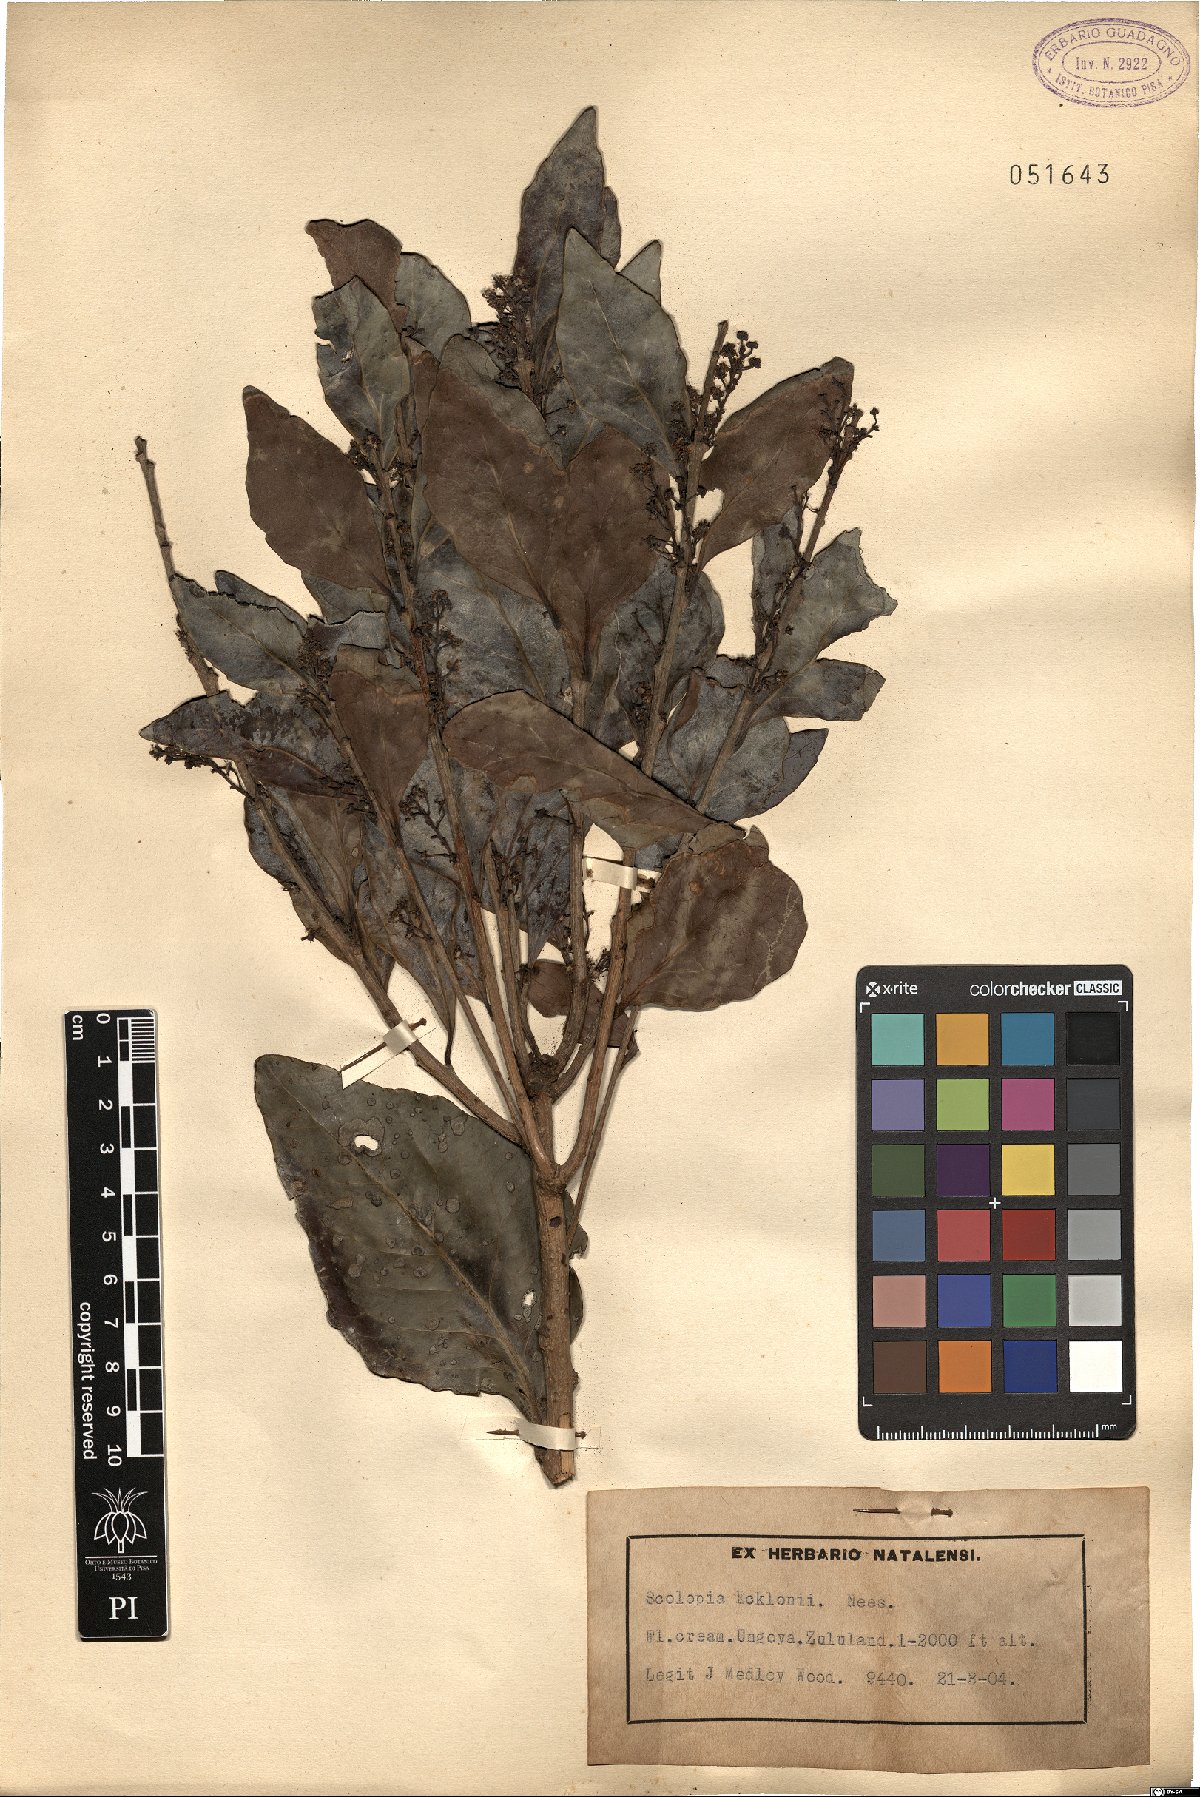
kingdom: Plantae
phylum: Tracheophyta
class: Magnoliopsida
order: Malpighiales
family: Salicaceae
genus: Scolopia
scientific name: Scolopia zeyheri
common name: Thorn pear
